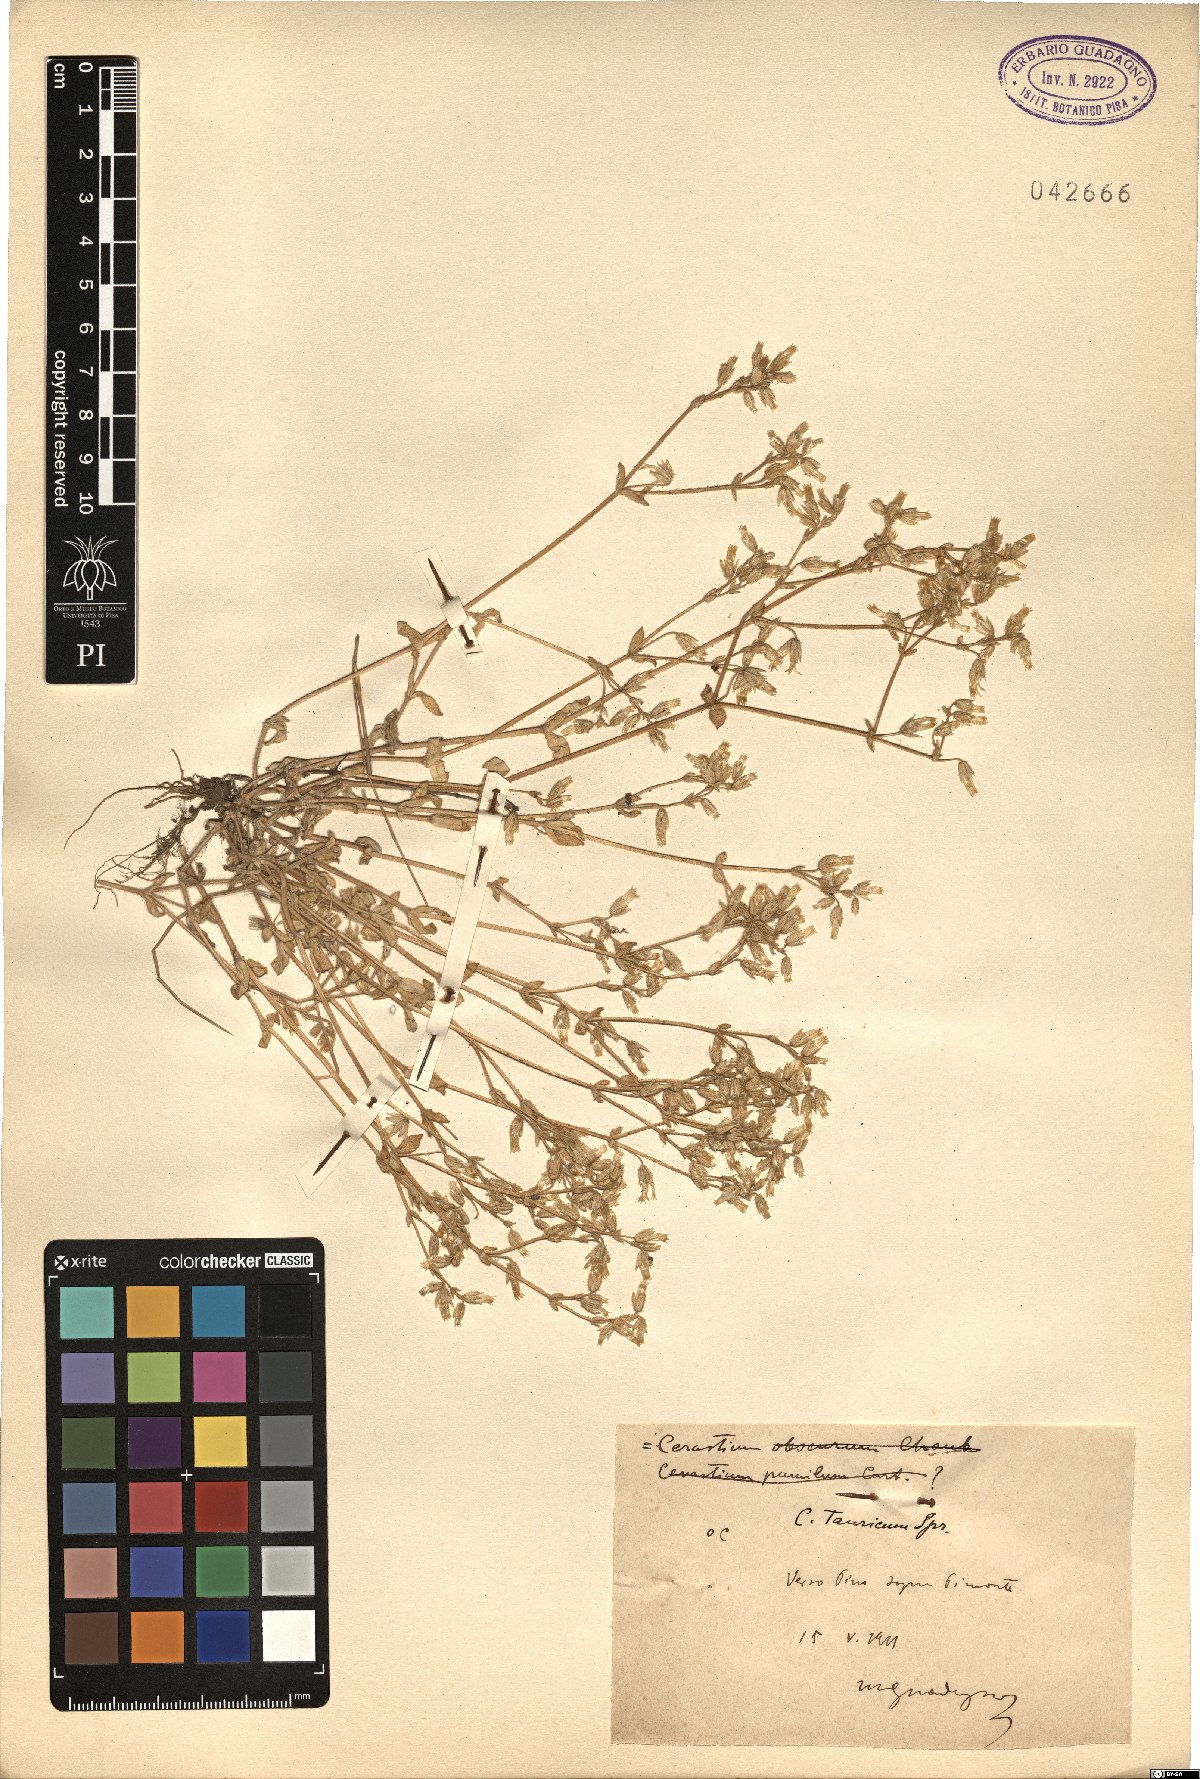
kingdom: Plantae
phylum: Tracheophyta
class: Magnoliopsida
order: Caryophyllales
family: Caryophyllaceae
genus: Cerastium
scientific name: Cerastium brachypetalum
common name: Grey mouse-ear
